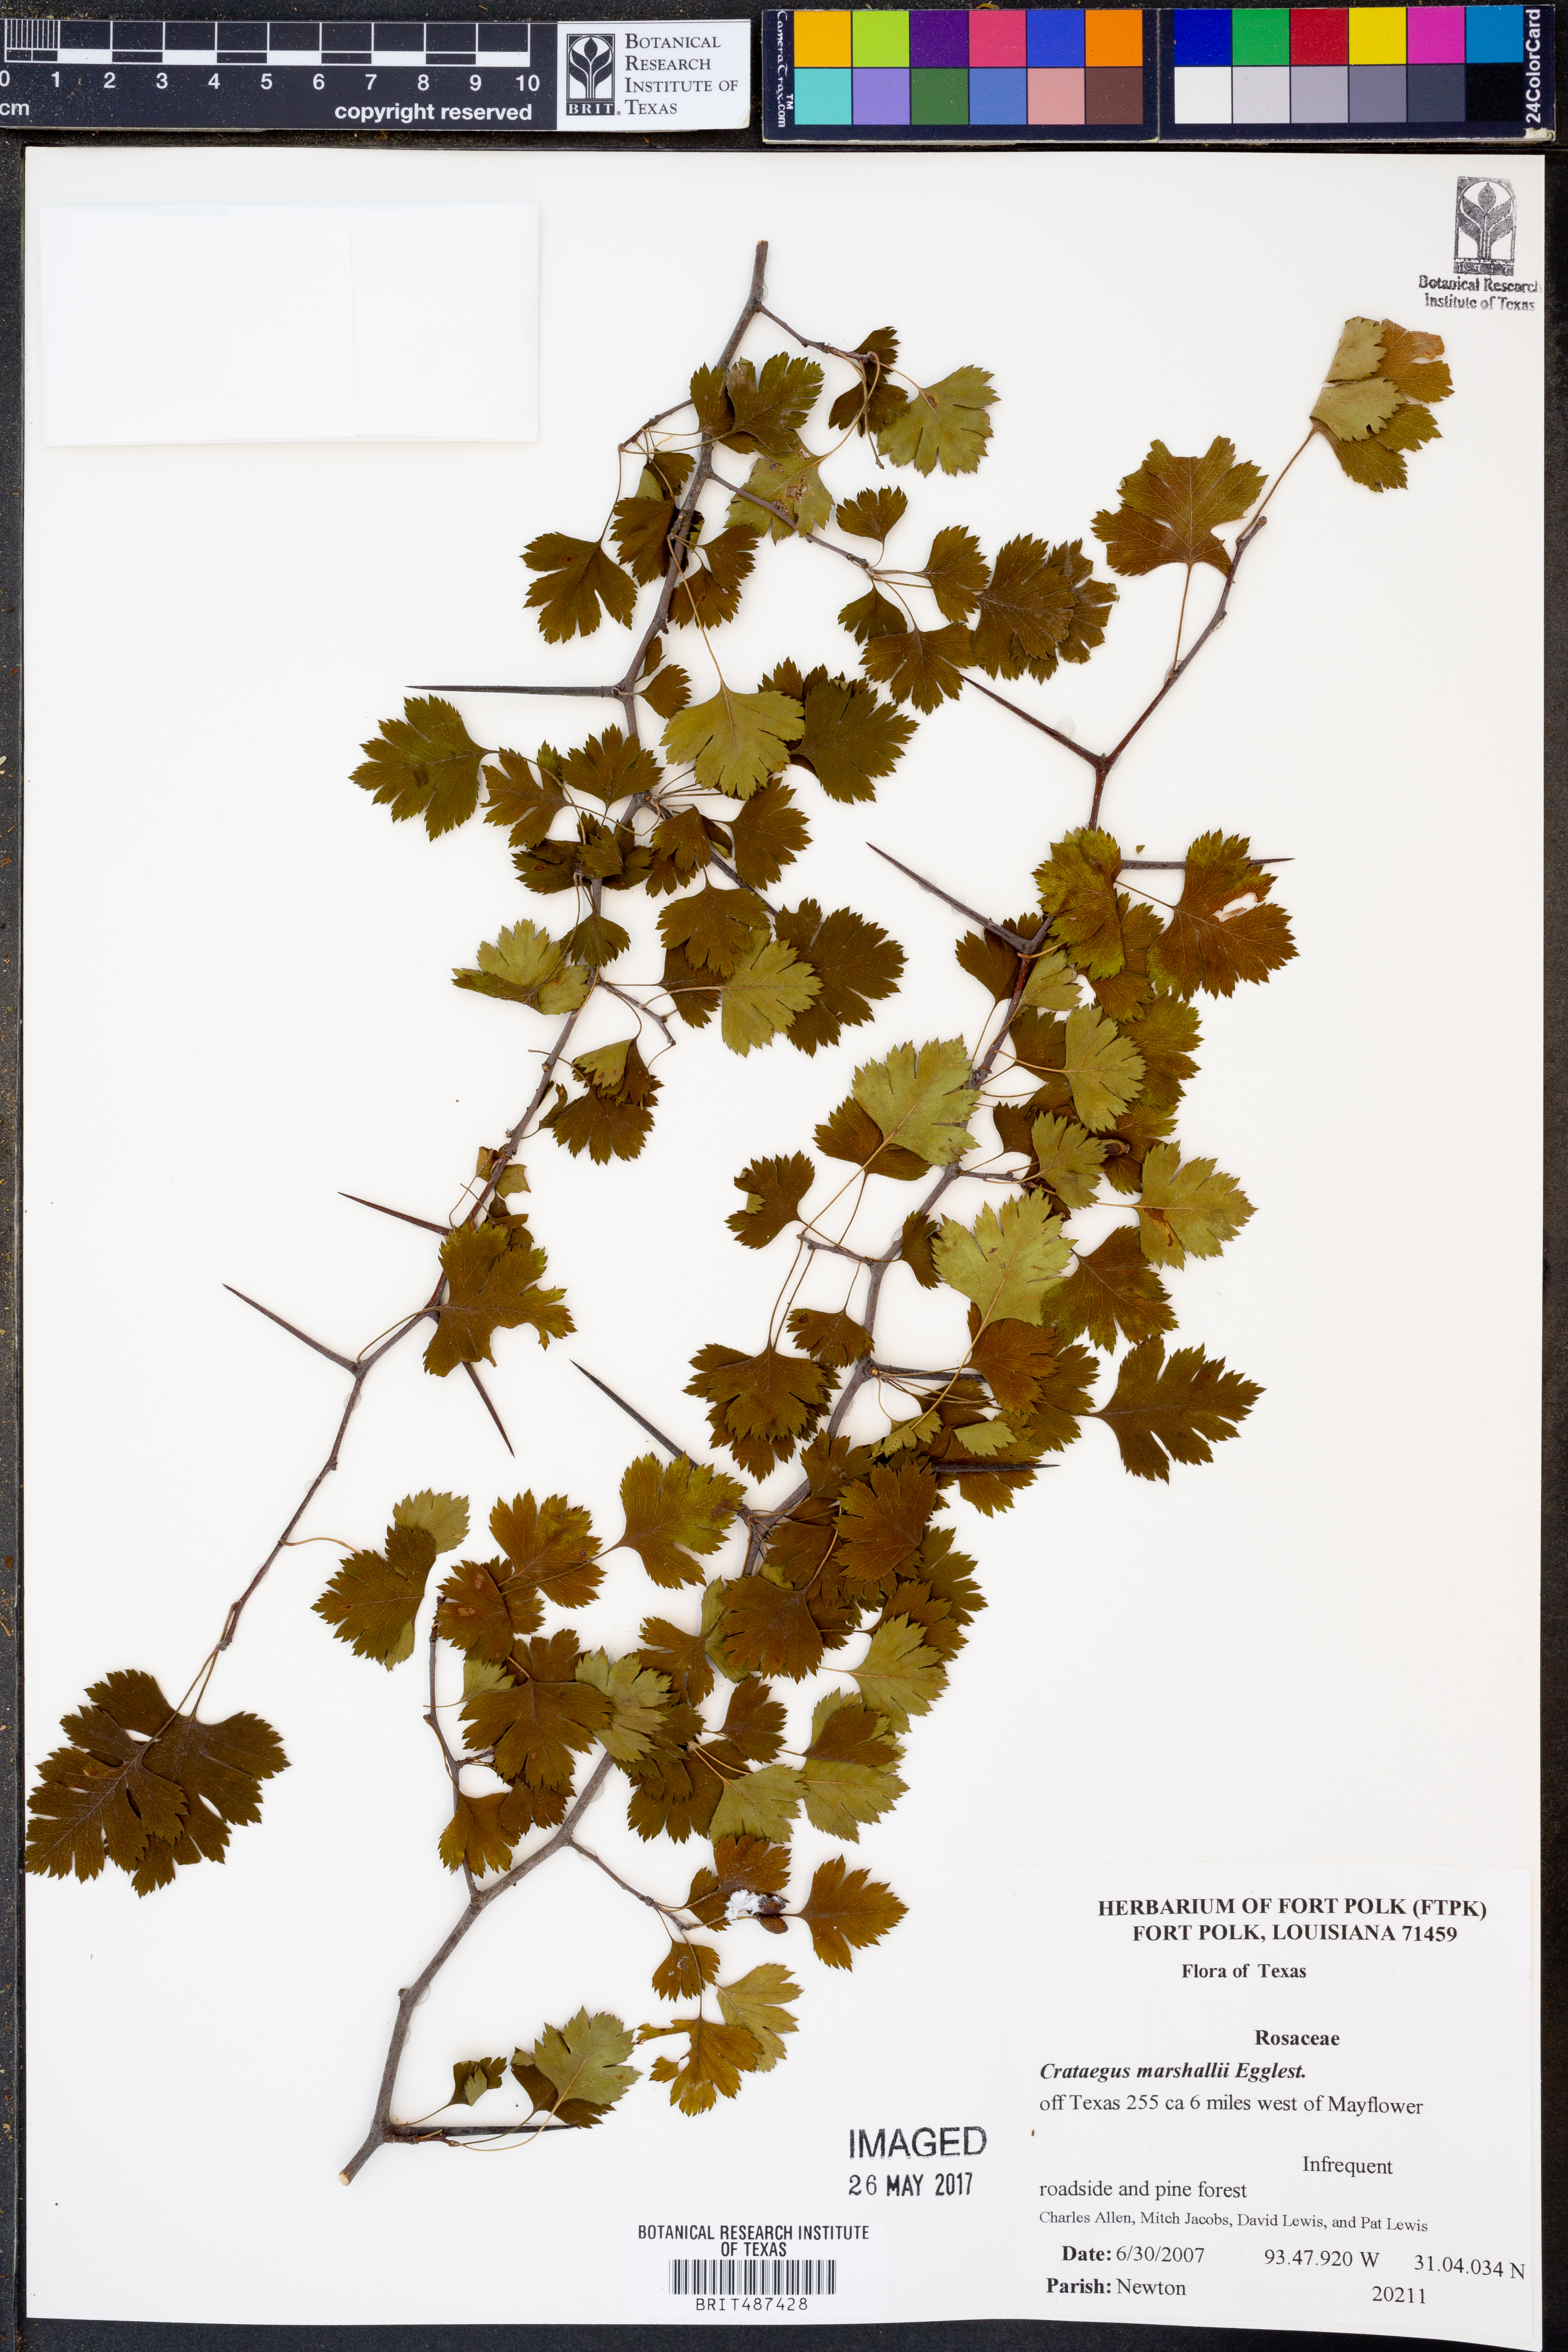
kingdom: Plantae
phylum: Tracheophyta
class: Magnoliopsida
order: Rosales
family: Rosaceae
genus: Crataegus
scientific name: Crataegus marshallii
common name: Parsley-hawthorn
